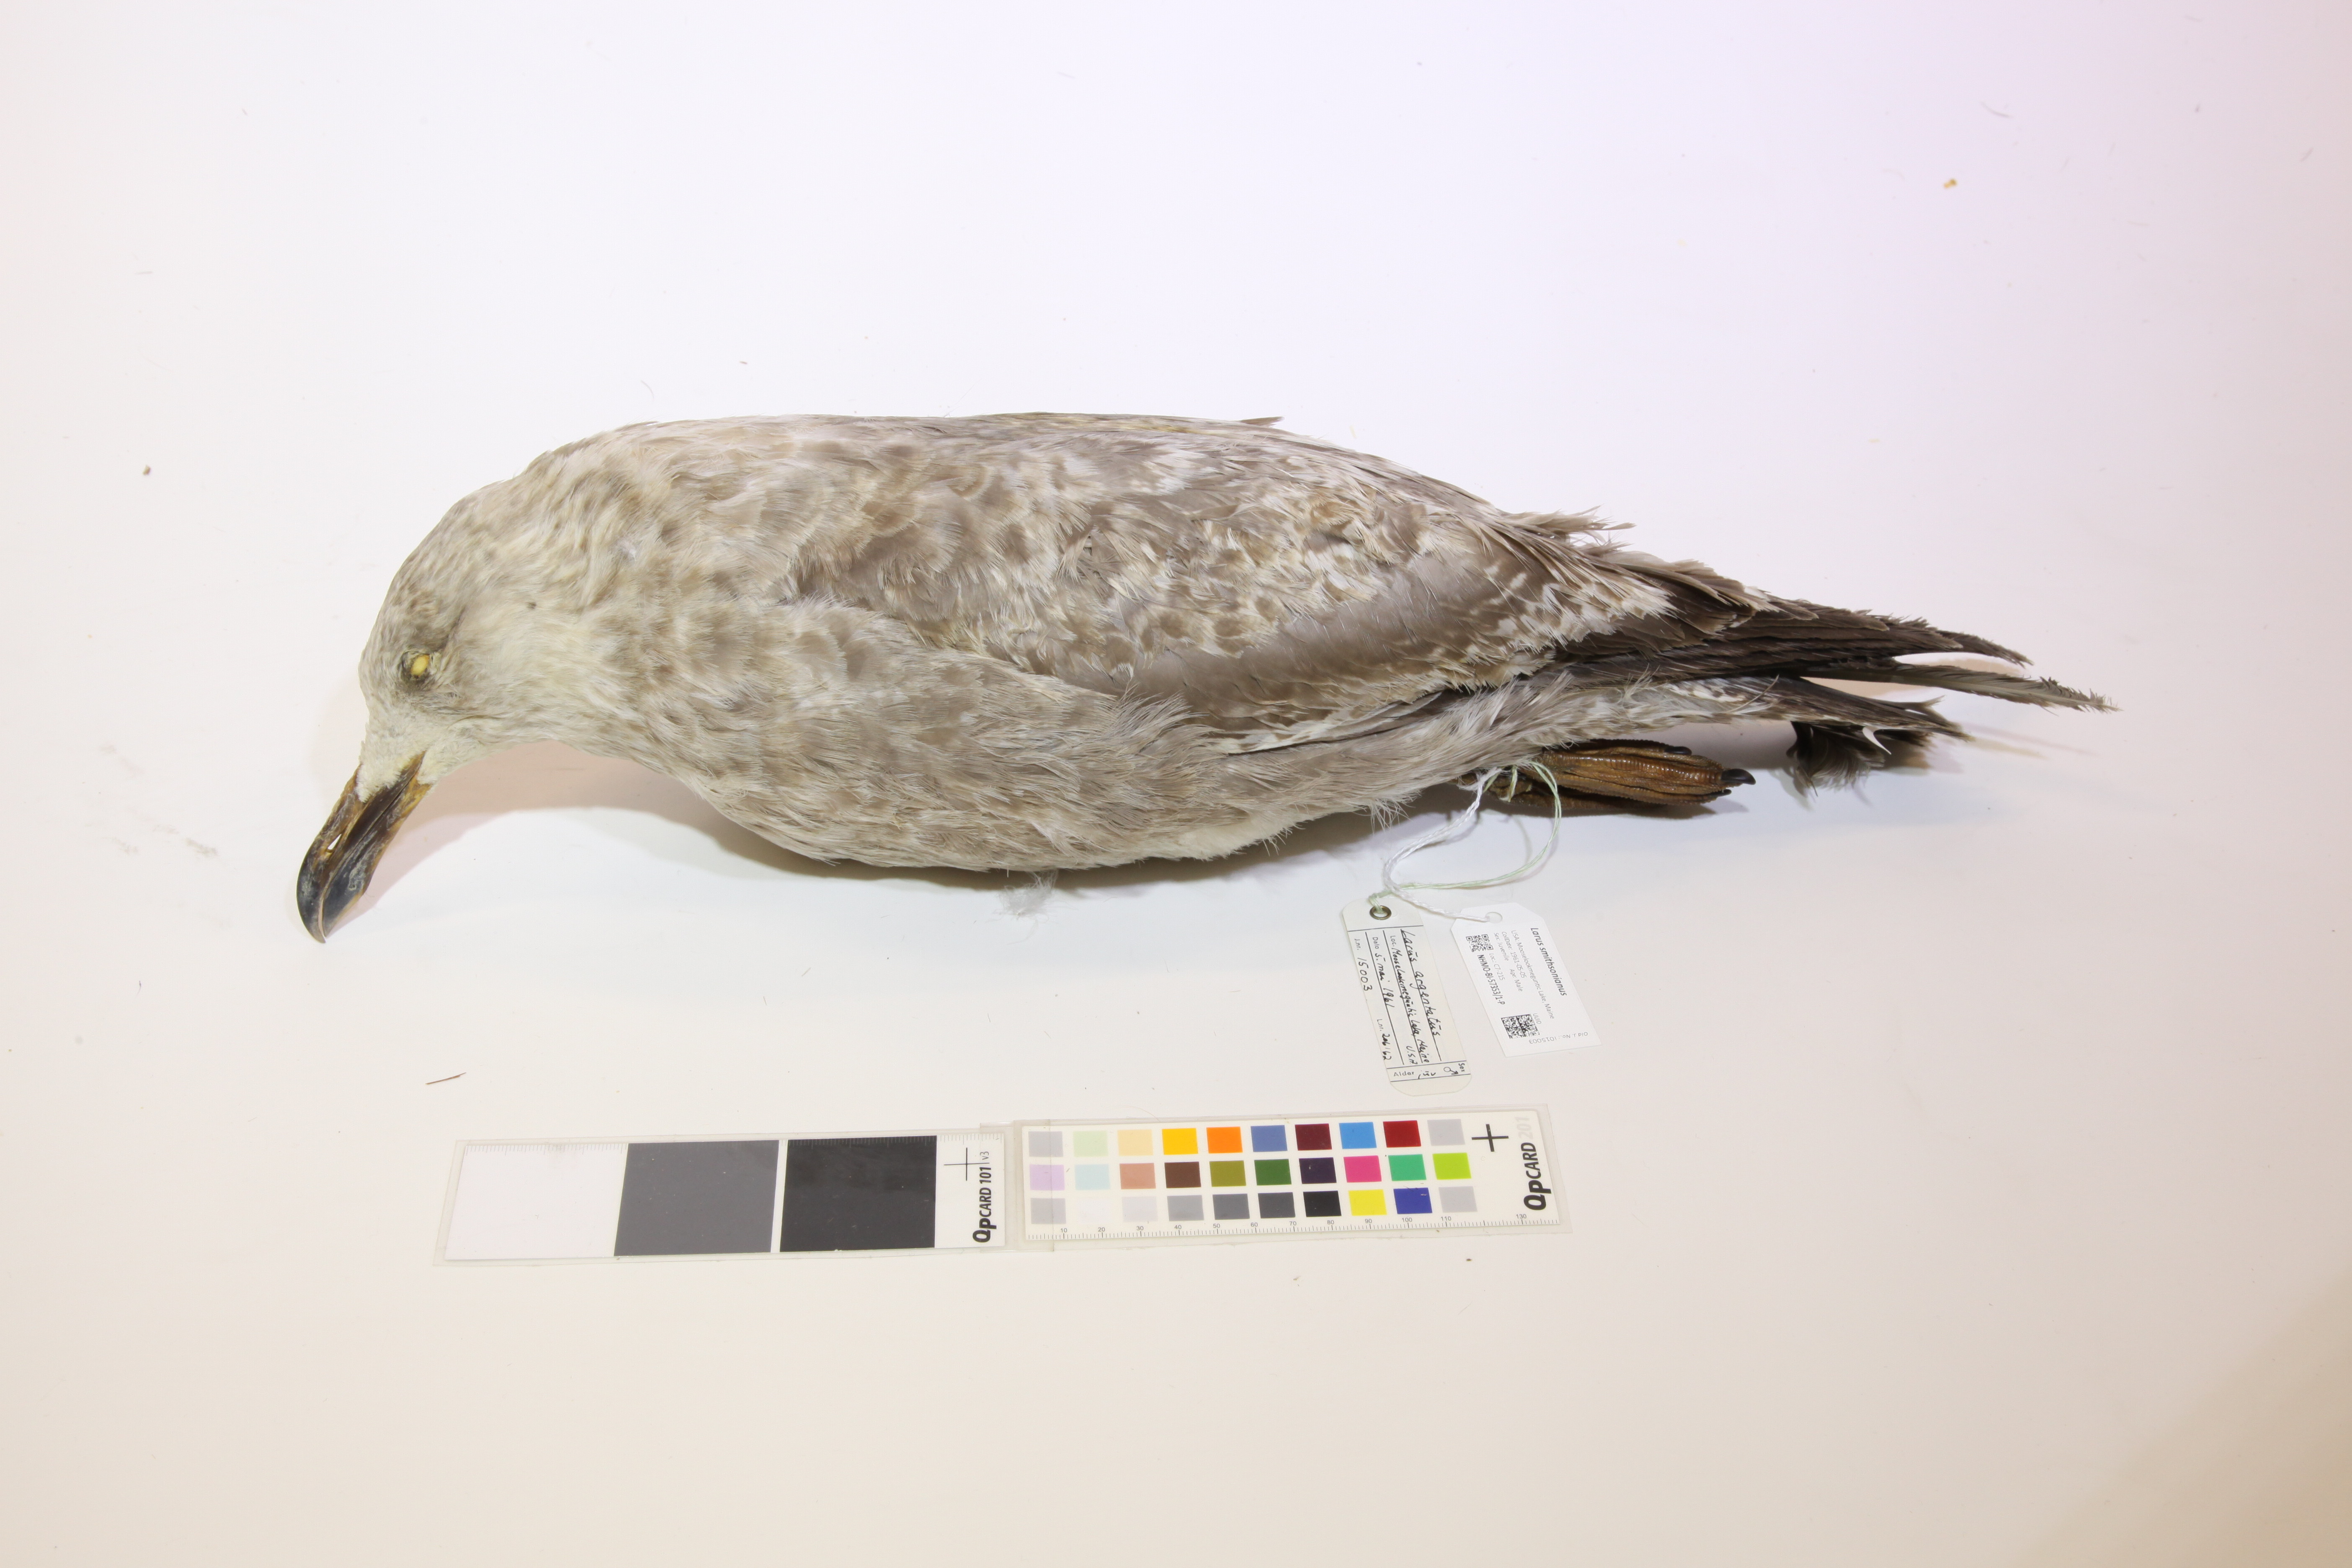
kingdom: Animalia
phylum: Chordata
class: Aves
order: Charadriiformes
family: Laridae
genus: Larus
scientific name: Larus smithsonianus
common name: American herring gull
